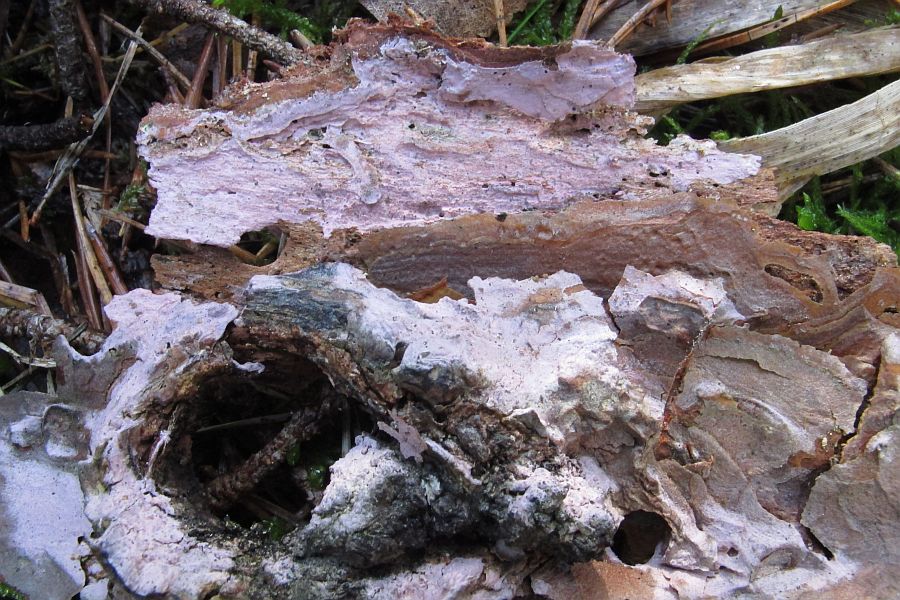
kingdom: Fungi
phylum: Basidiomycota
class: Agaricomycetes
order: Cantharellales
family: Tulasnellaceae
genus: Tulasnella
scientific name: Tulasnella violea
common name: violet ballonhinde
